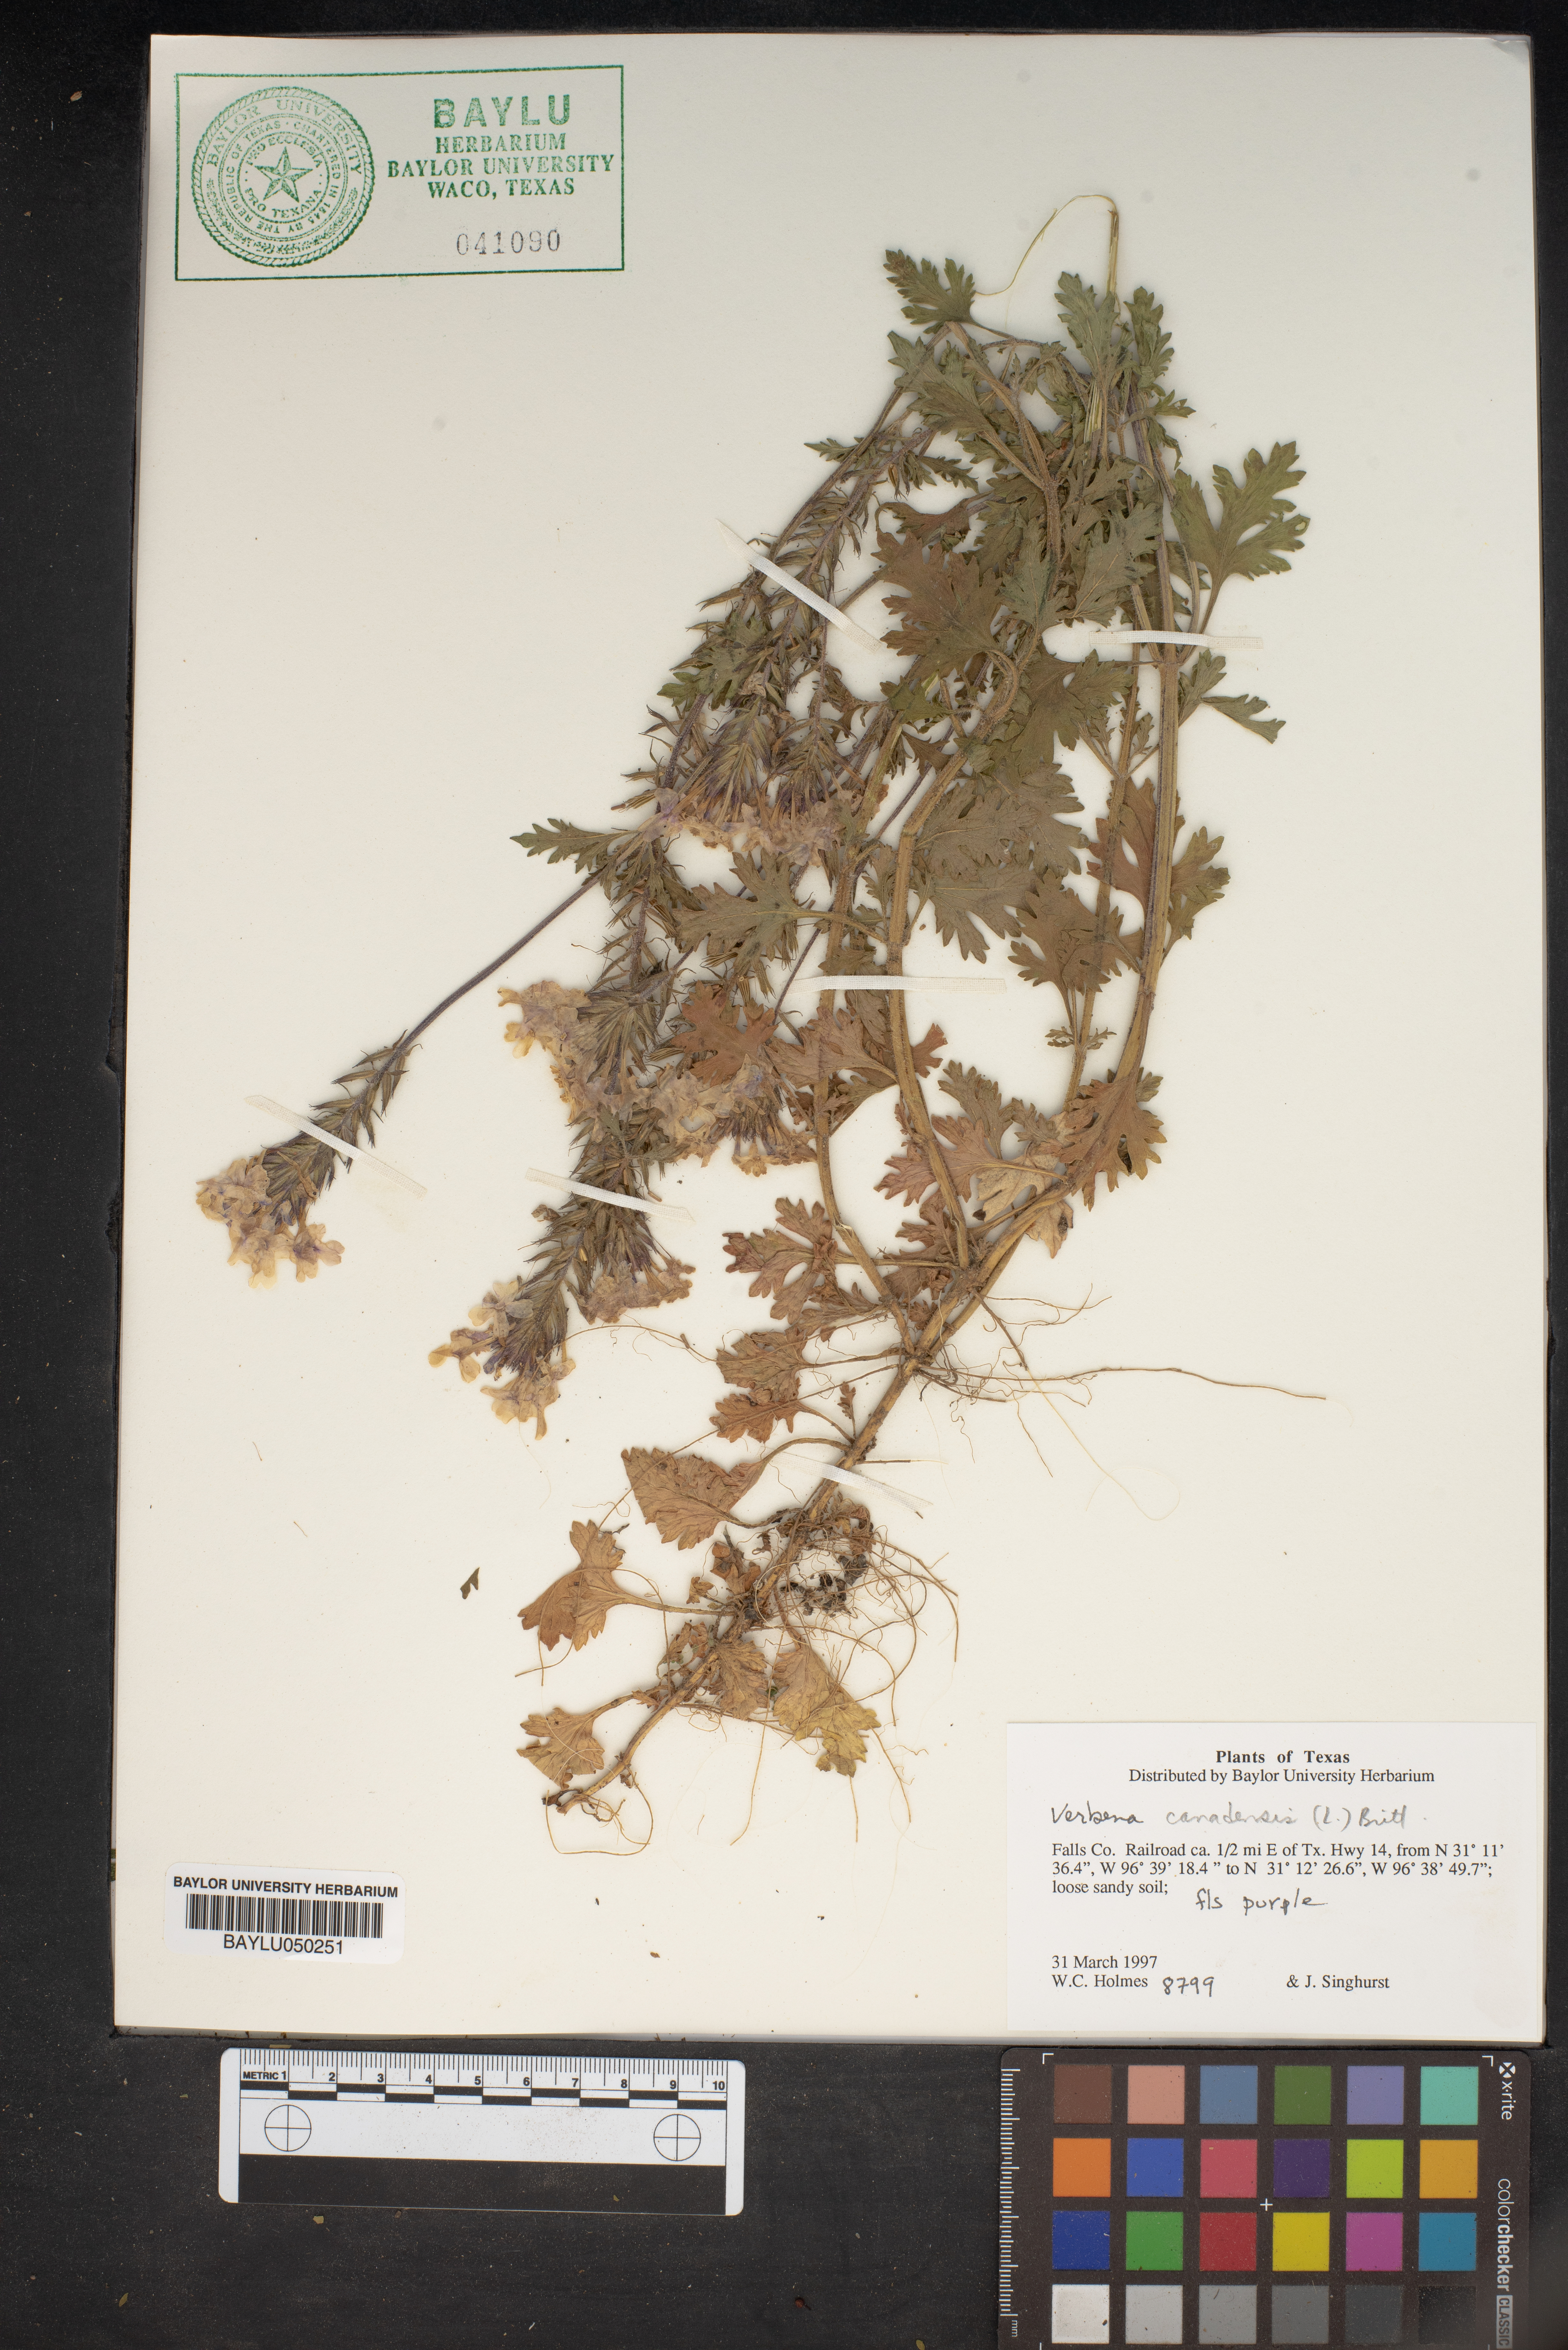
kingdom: Plantae
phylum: Tracheophyta
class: Magnoliopsida
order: Lamiales
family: Verbenaceae
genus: Verbena
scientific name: Verbena canadensis
